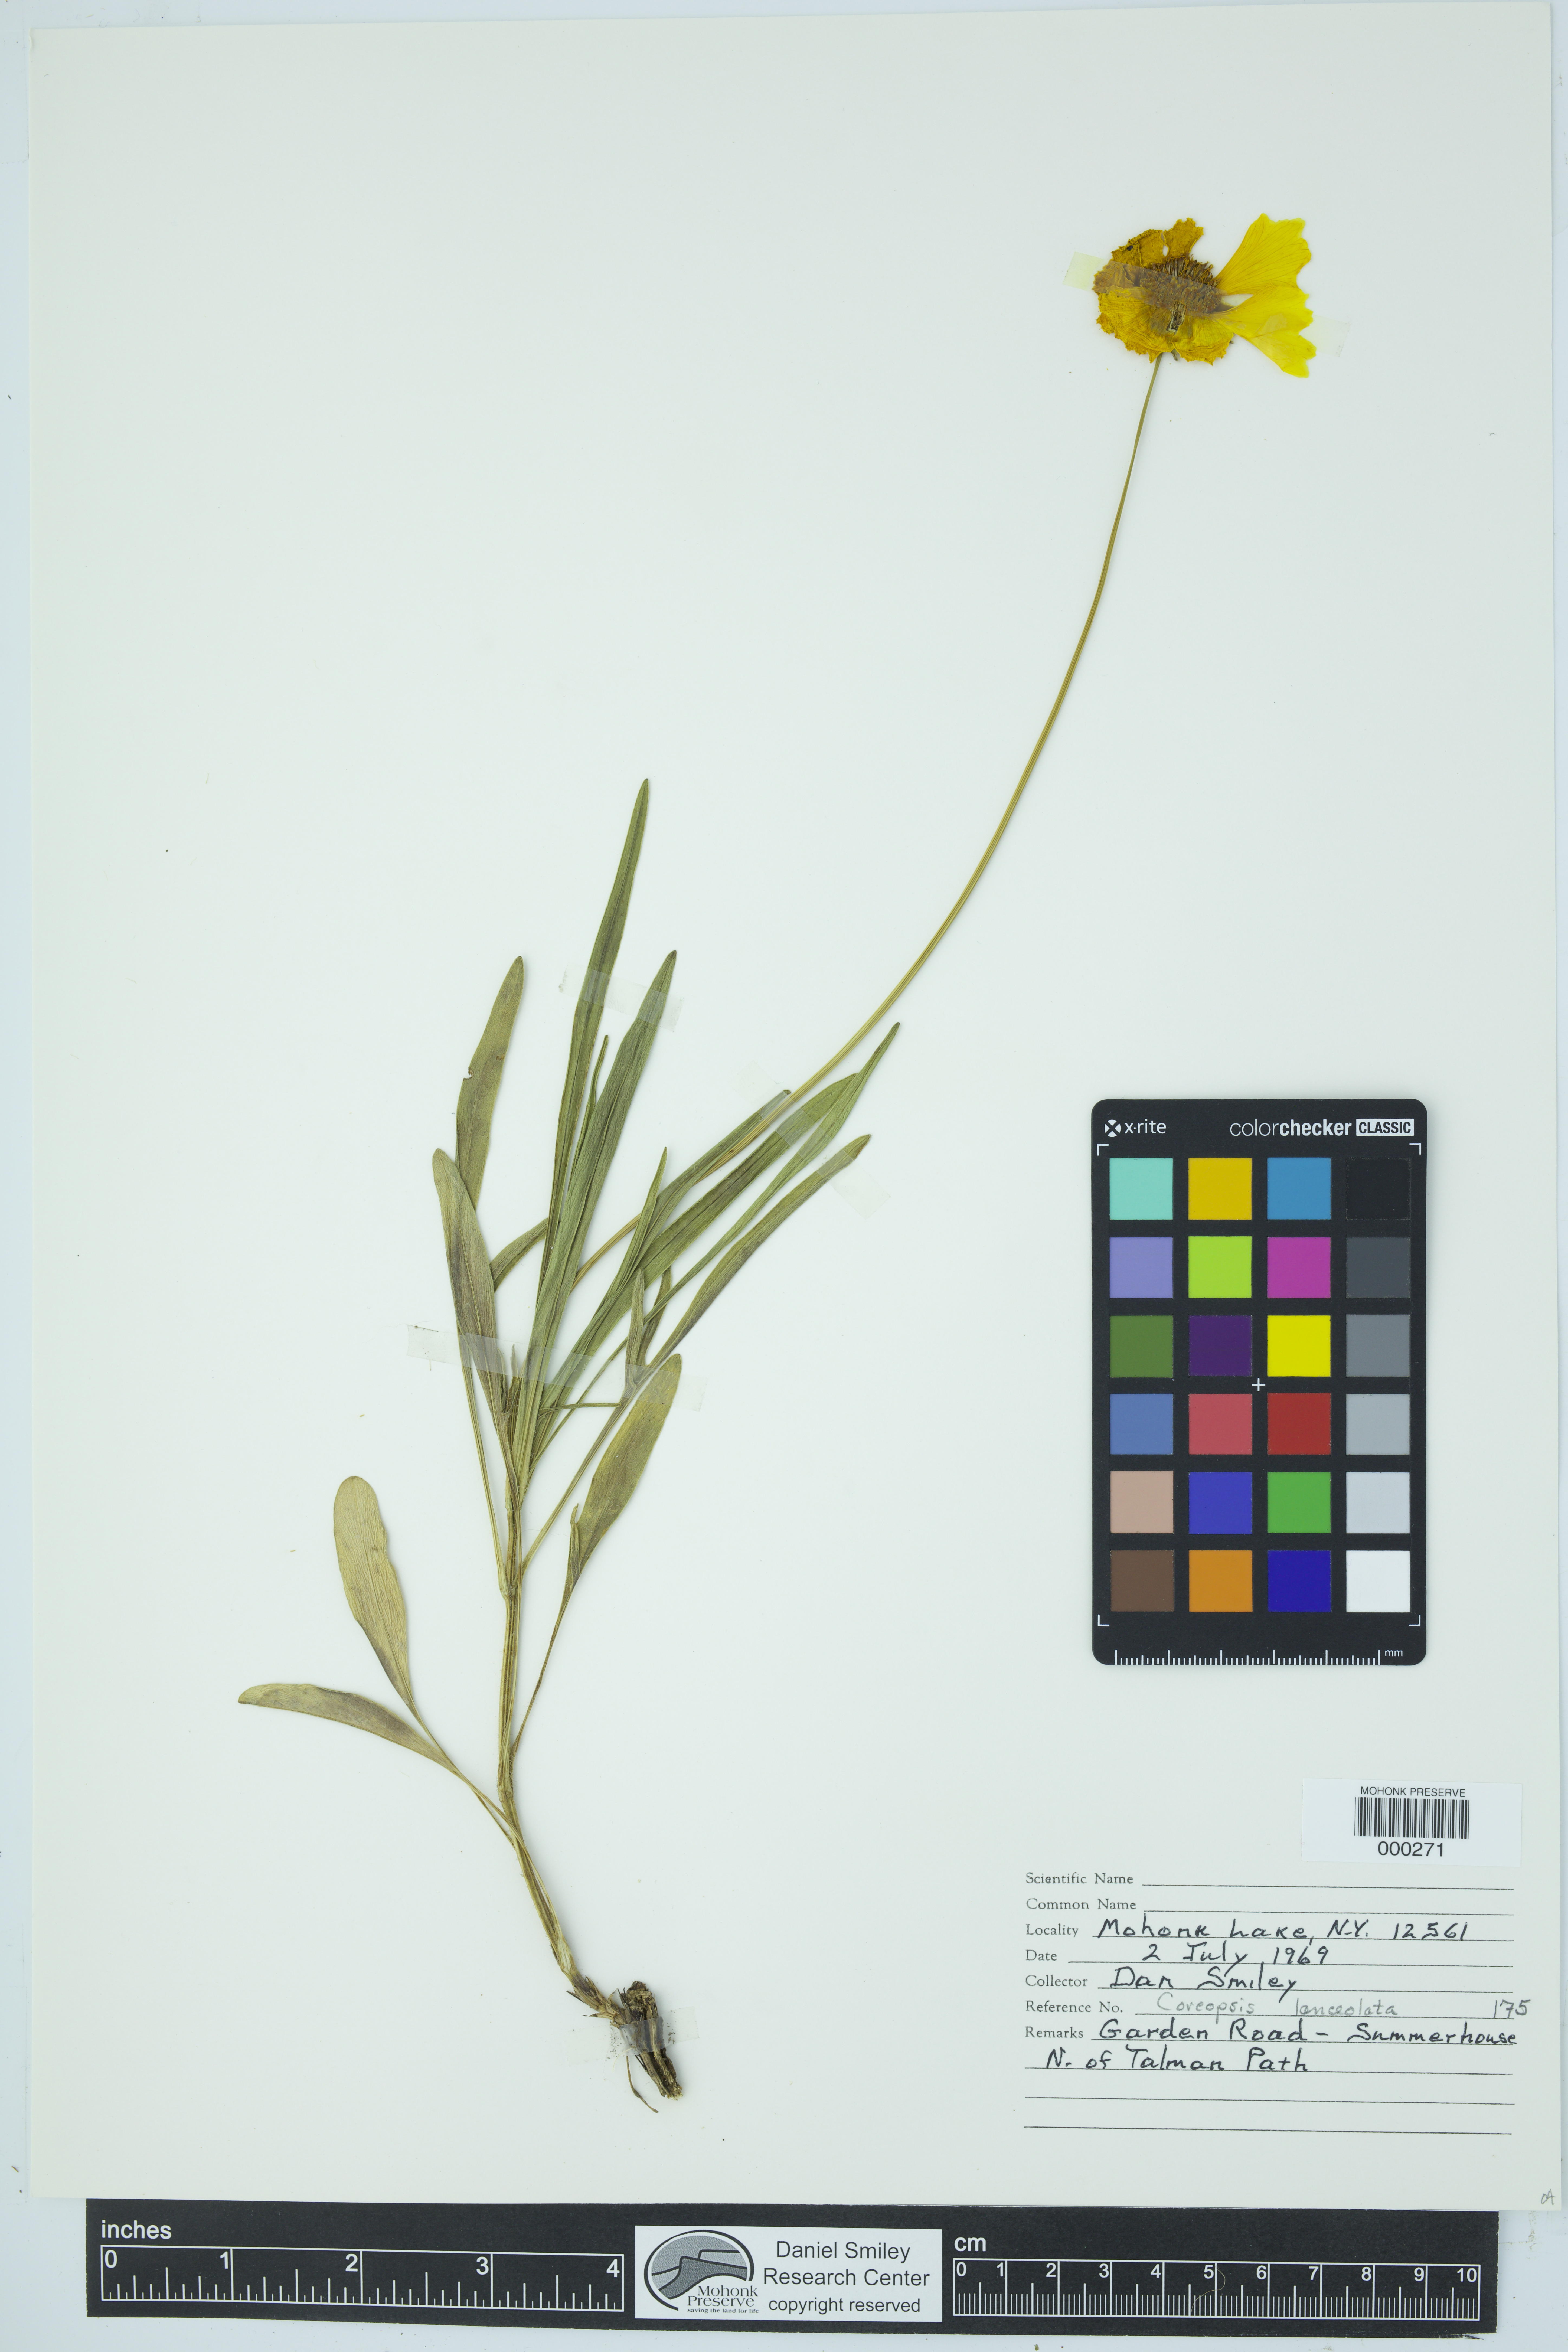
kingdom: Plantae
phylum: Tracheophyta
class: Magnoliopsida
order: Asterales
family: Asteraceae
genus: Coreopsis
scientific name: Coreopsis lanceolata
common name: Garden coreopsis
